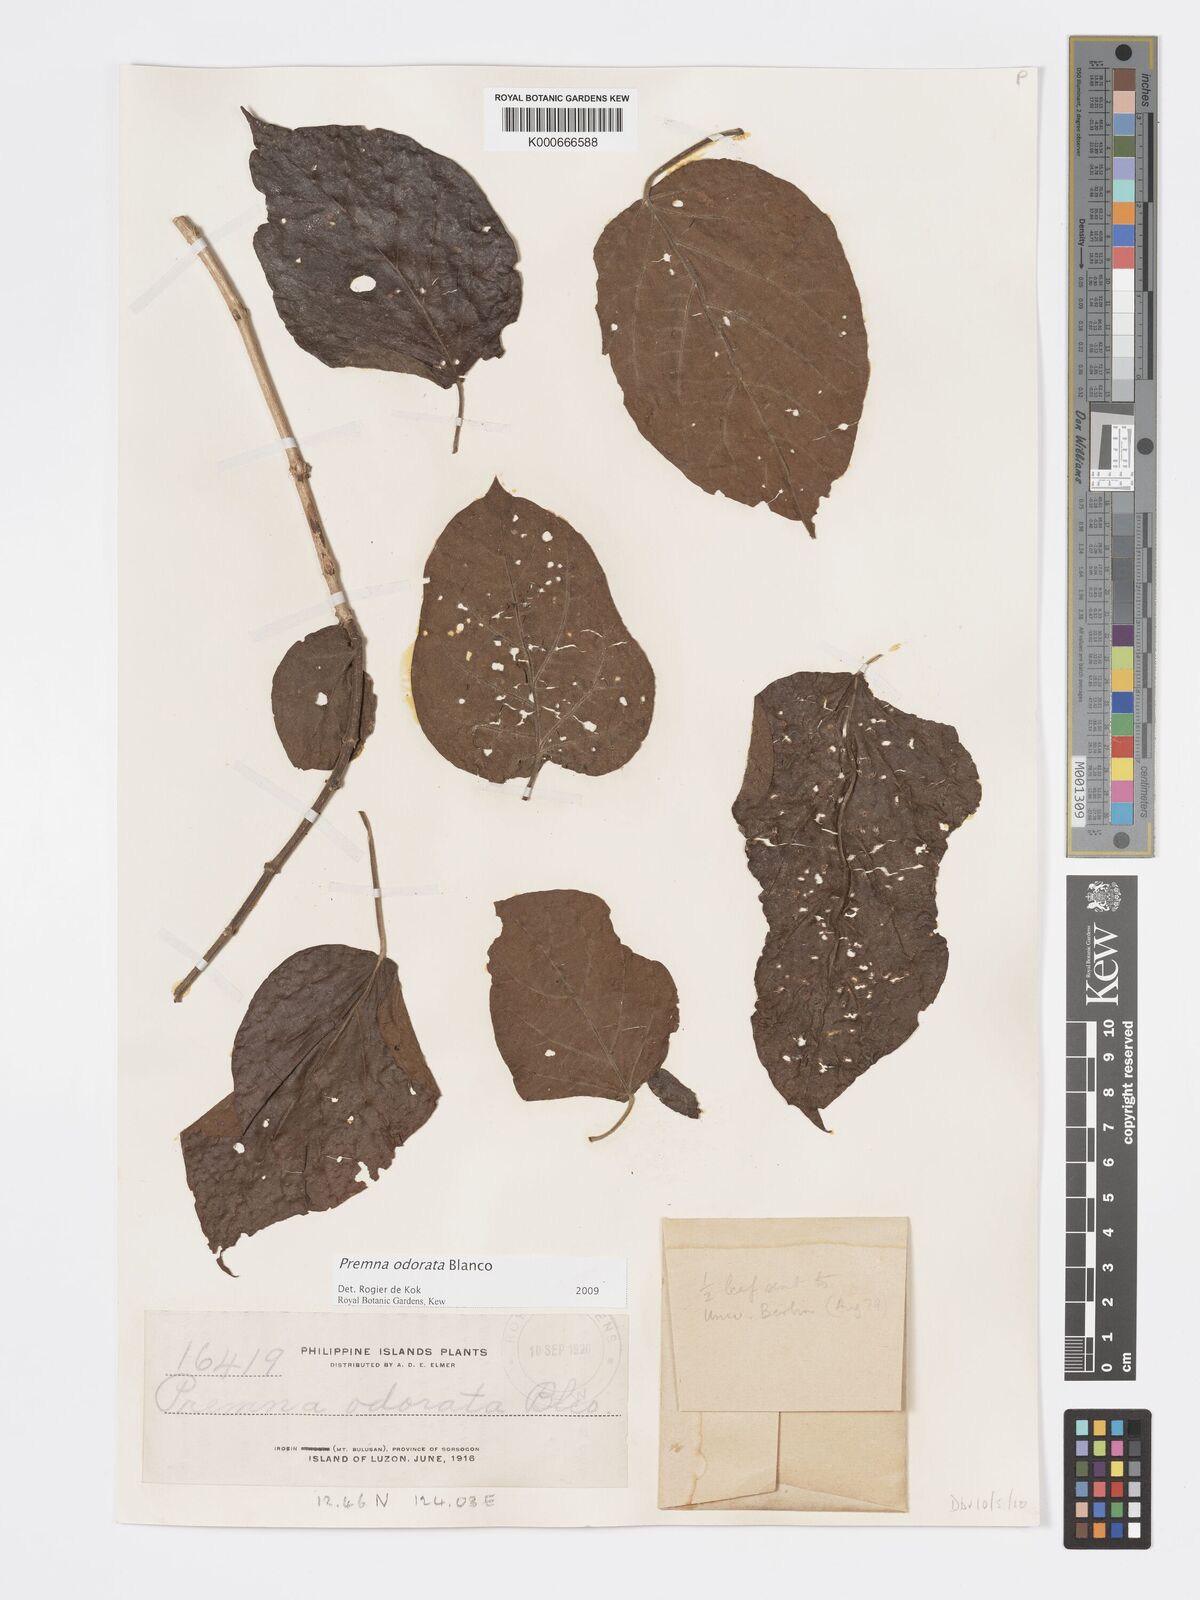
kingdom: Plantae
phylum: Tracheophyta
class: Magnoliopsida
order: Lamiales
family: Lamiaceae
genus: Premna
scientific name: Premna odorata
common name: Fragrant premna
